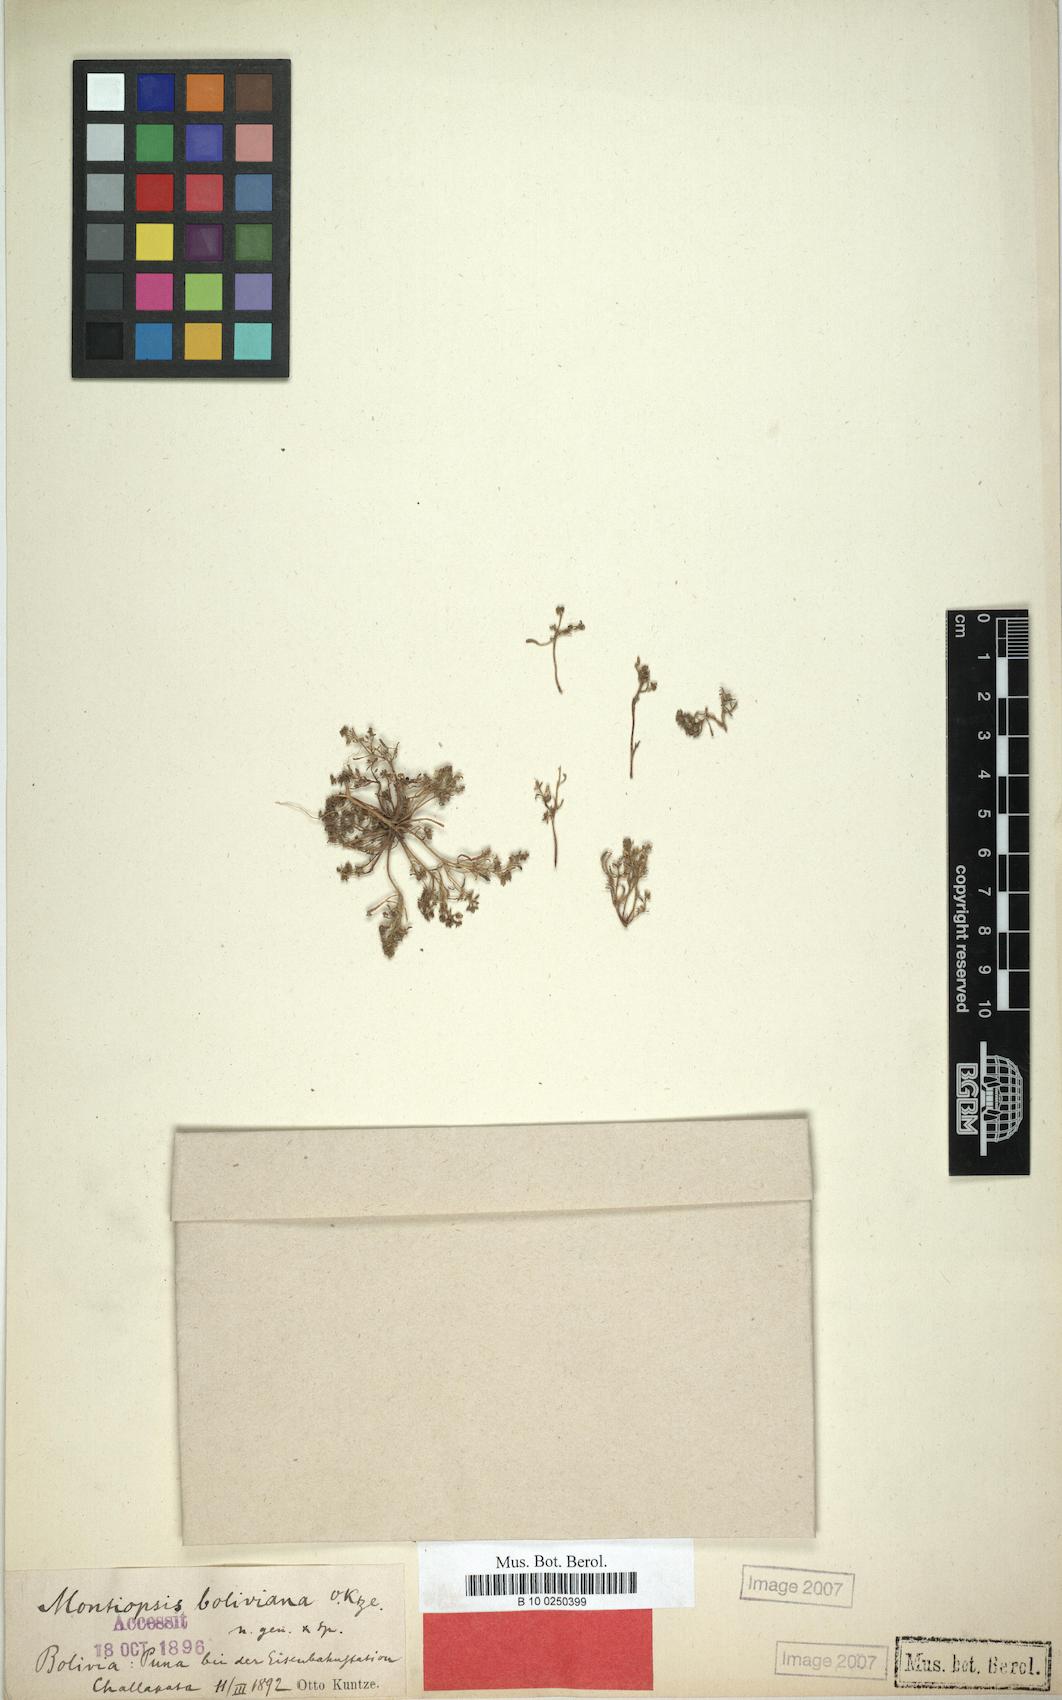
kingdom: Plantae
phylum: Tracheophyta
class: Magnoliopsida
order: Caryophyllales
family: Montiaceae
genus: Montiopsis
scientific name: Montiopsis cumingii
